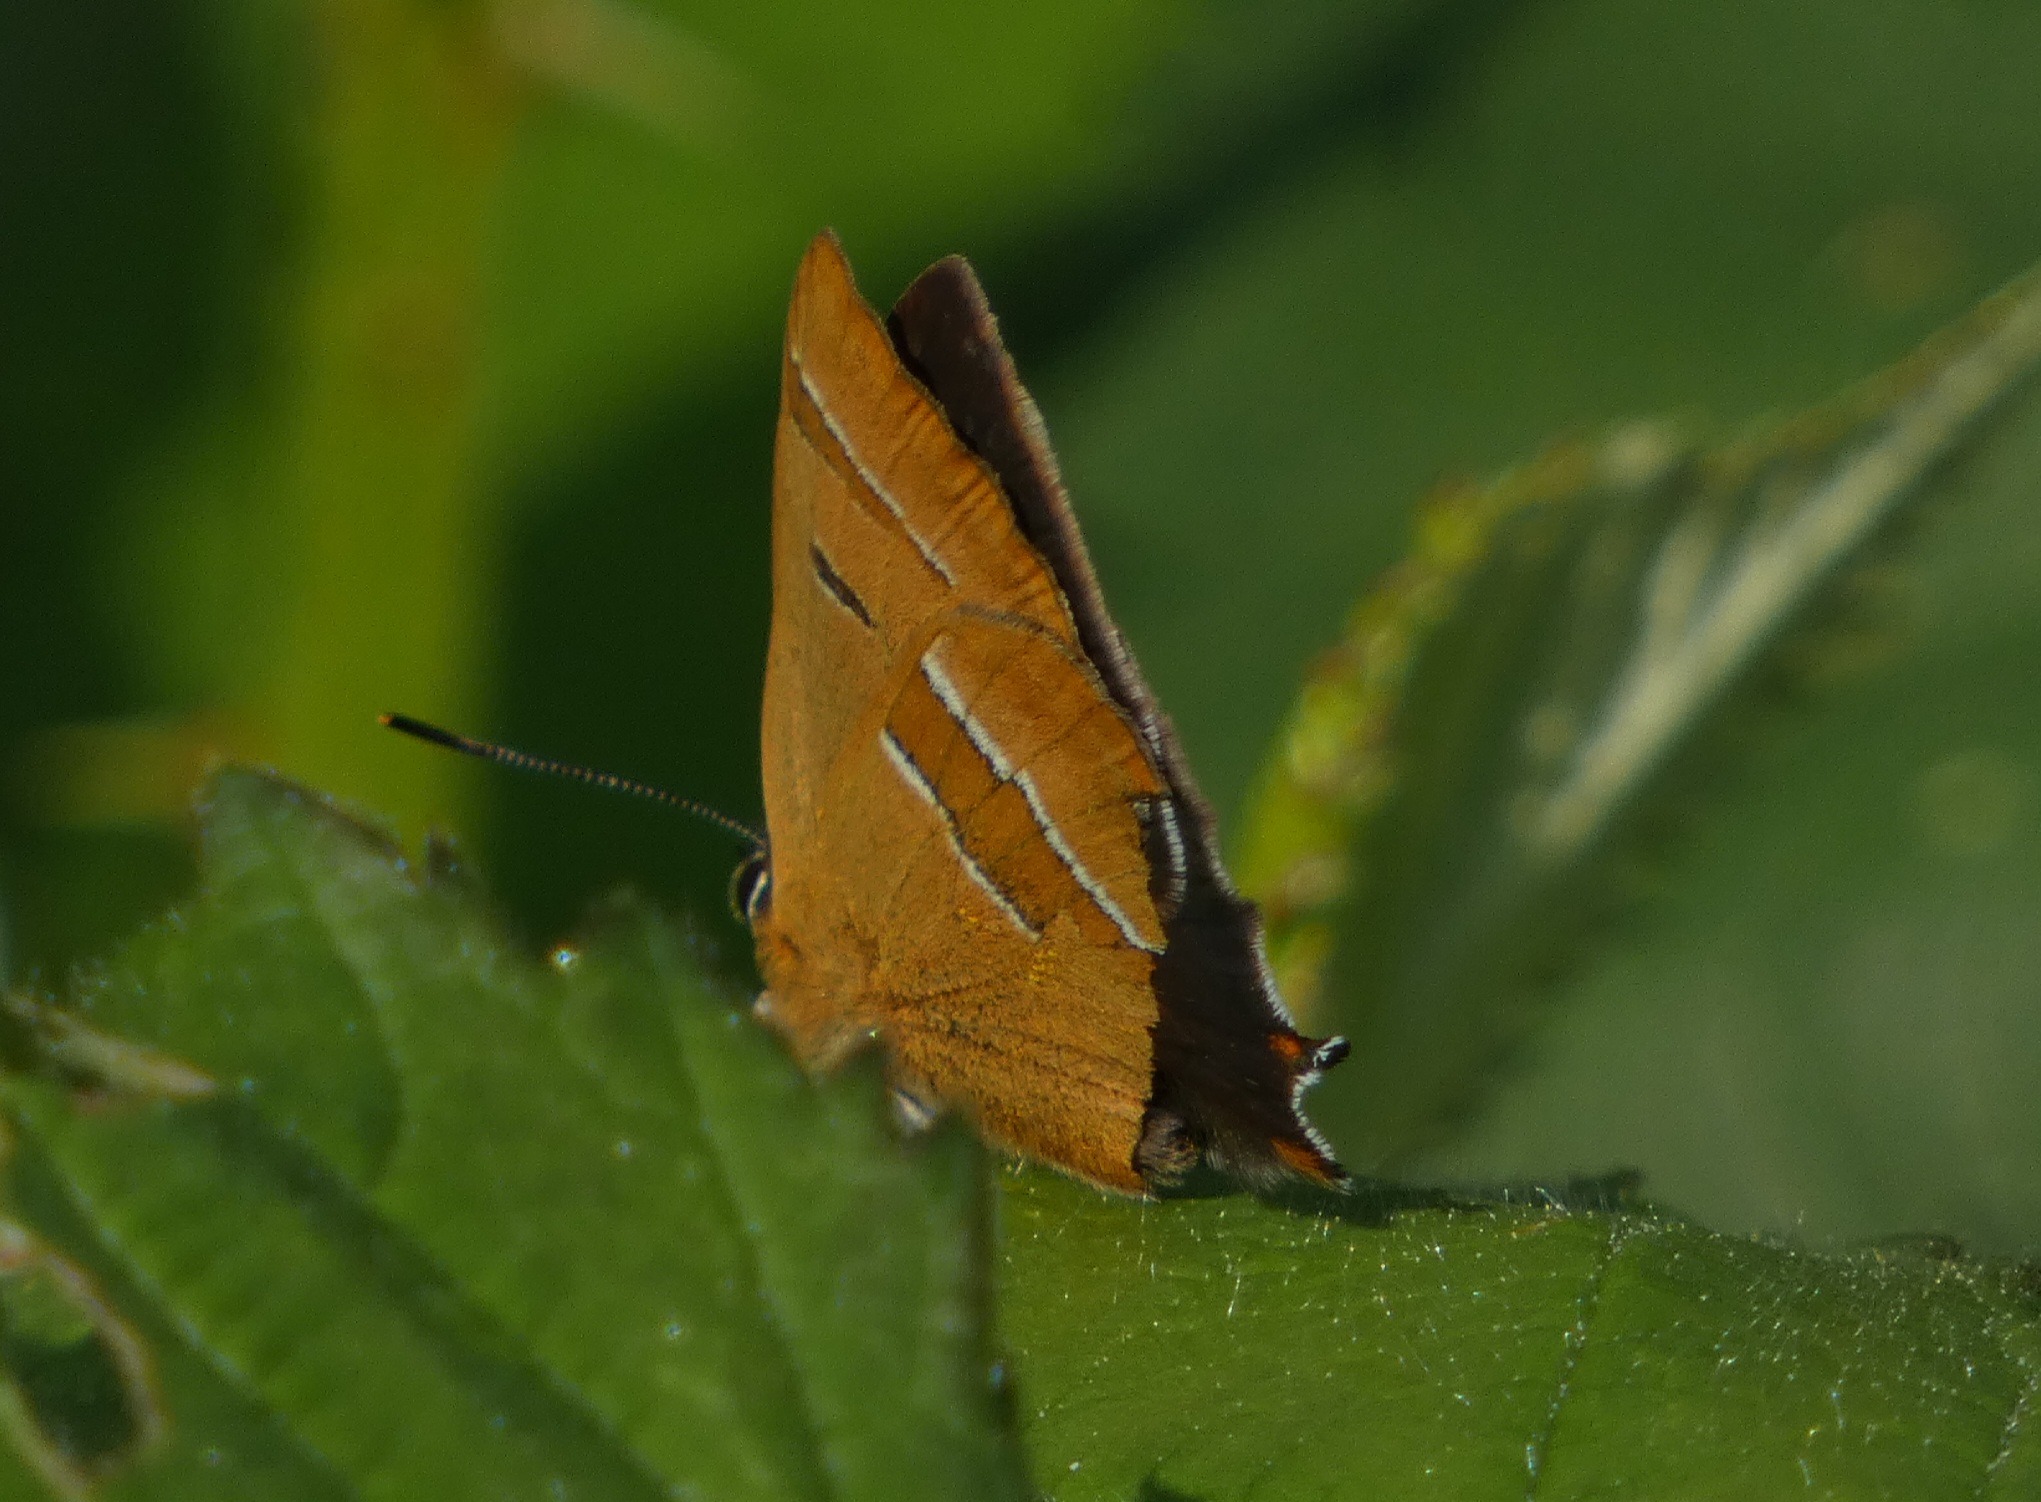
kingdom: Animalia
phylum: Arthropoda
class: Insecta
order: Lepidoptera
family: Lycaenidae
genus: Thecla
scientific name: Thecla betulae
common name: Guldhale
